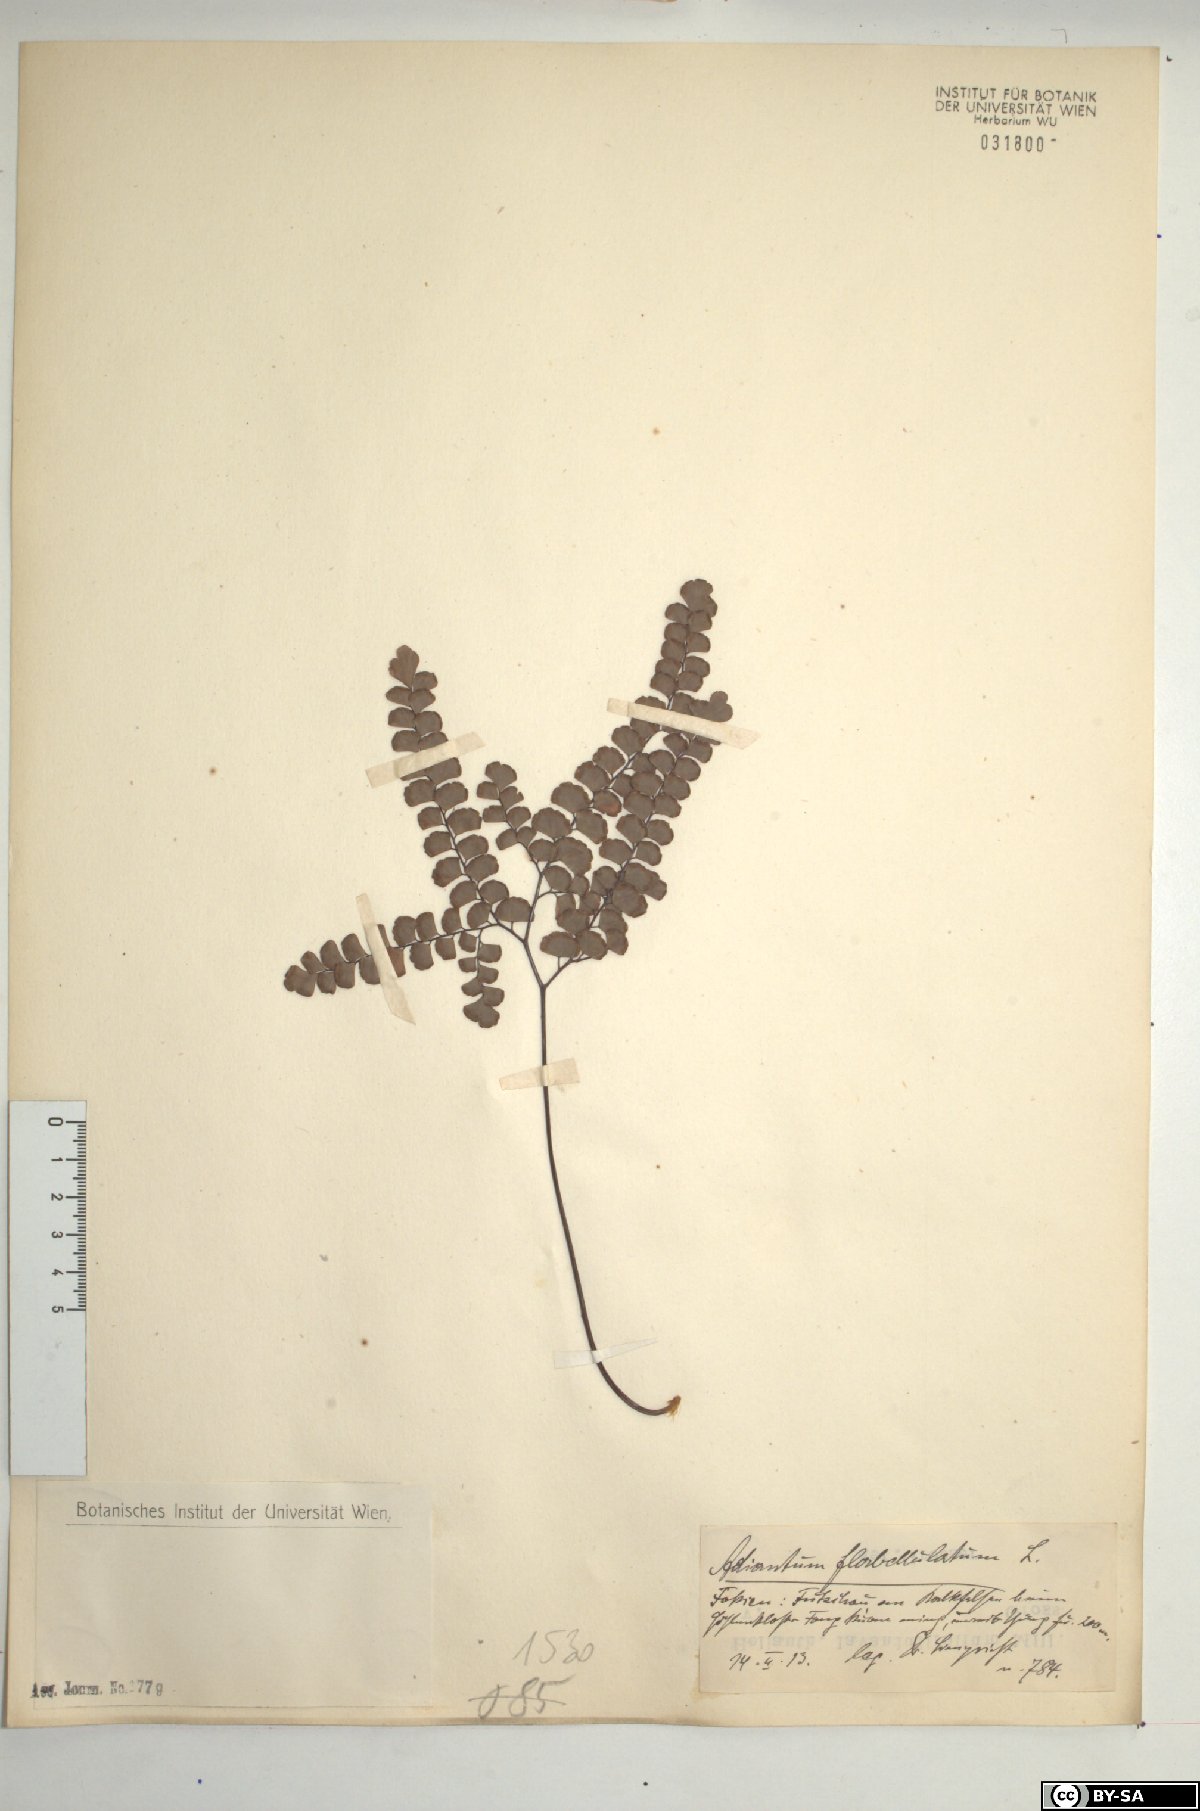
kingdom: Plantae
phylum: Tracheophyta
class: Polypodiopsida
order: Polypodiales
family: Pteridaceae
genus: Adiantum
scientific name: Adiantum flabellulatum
